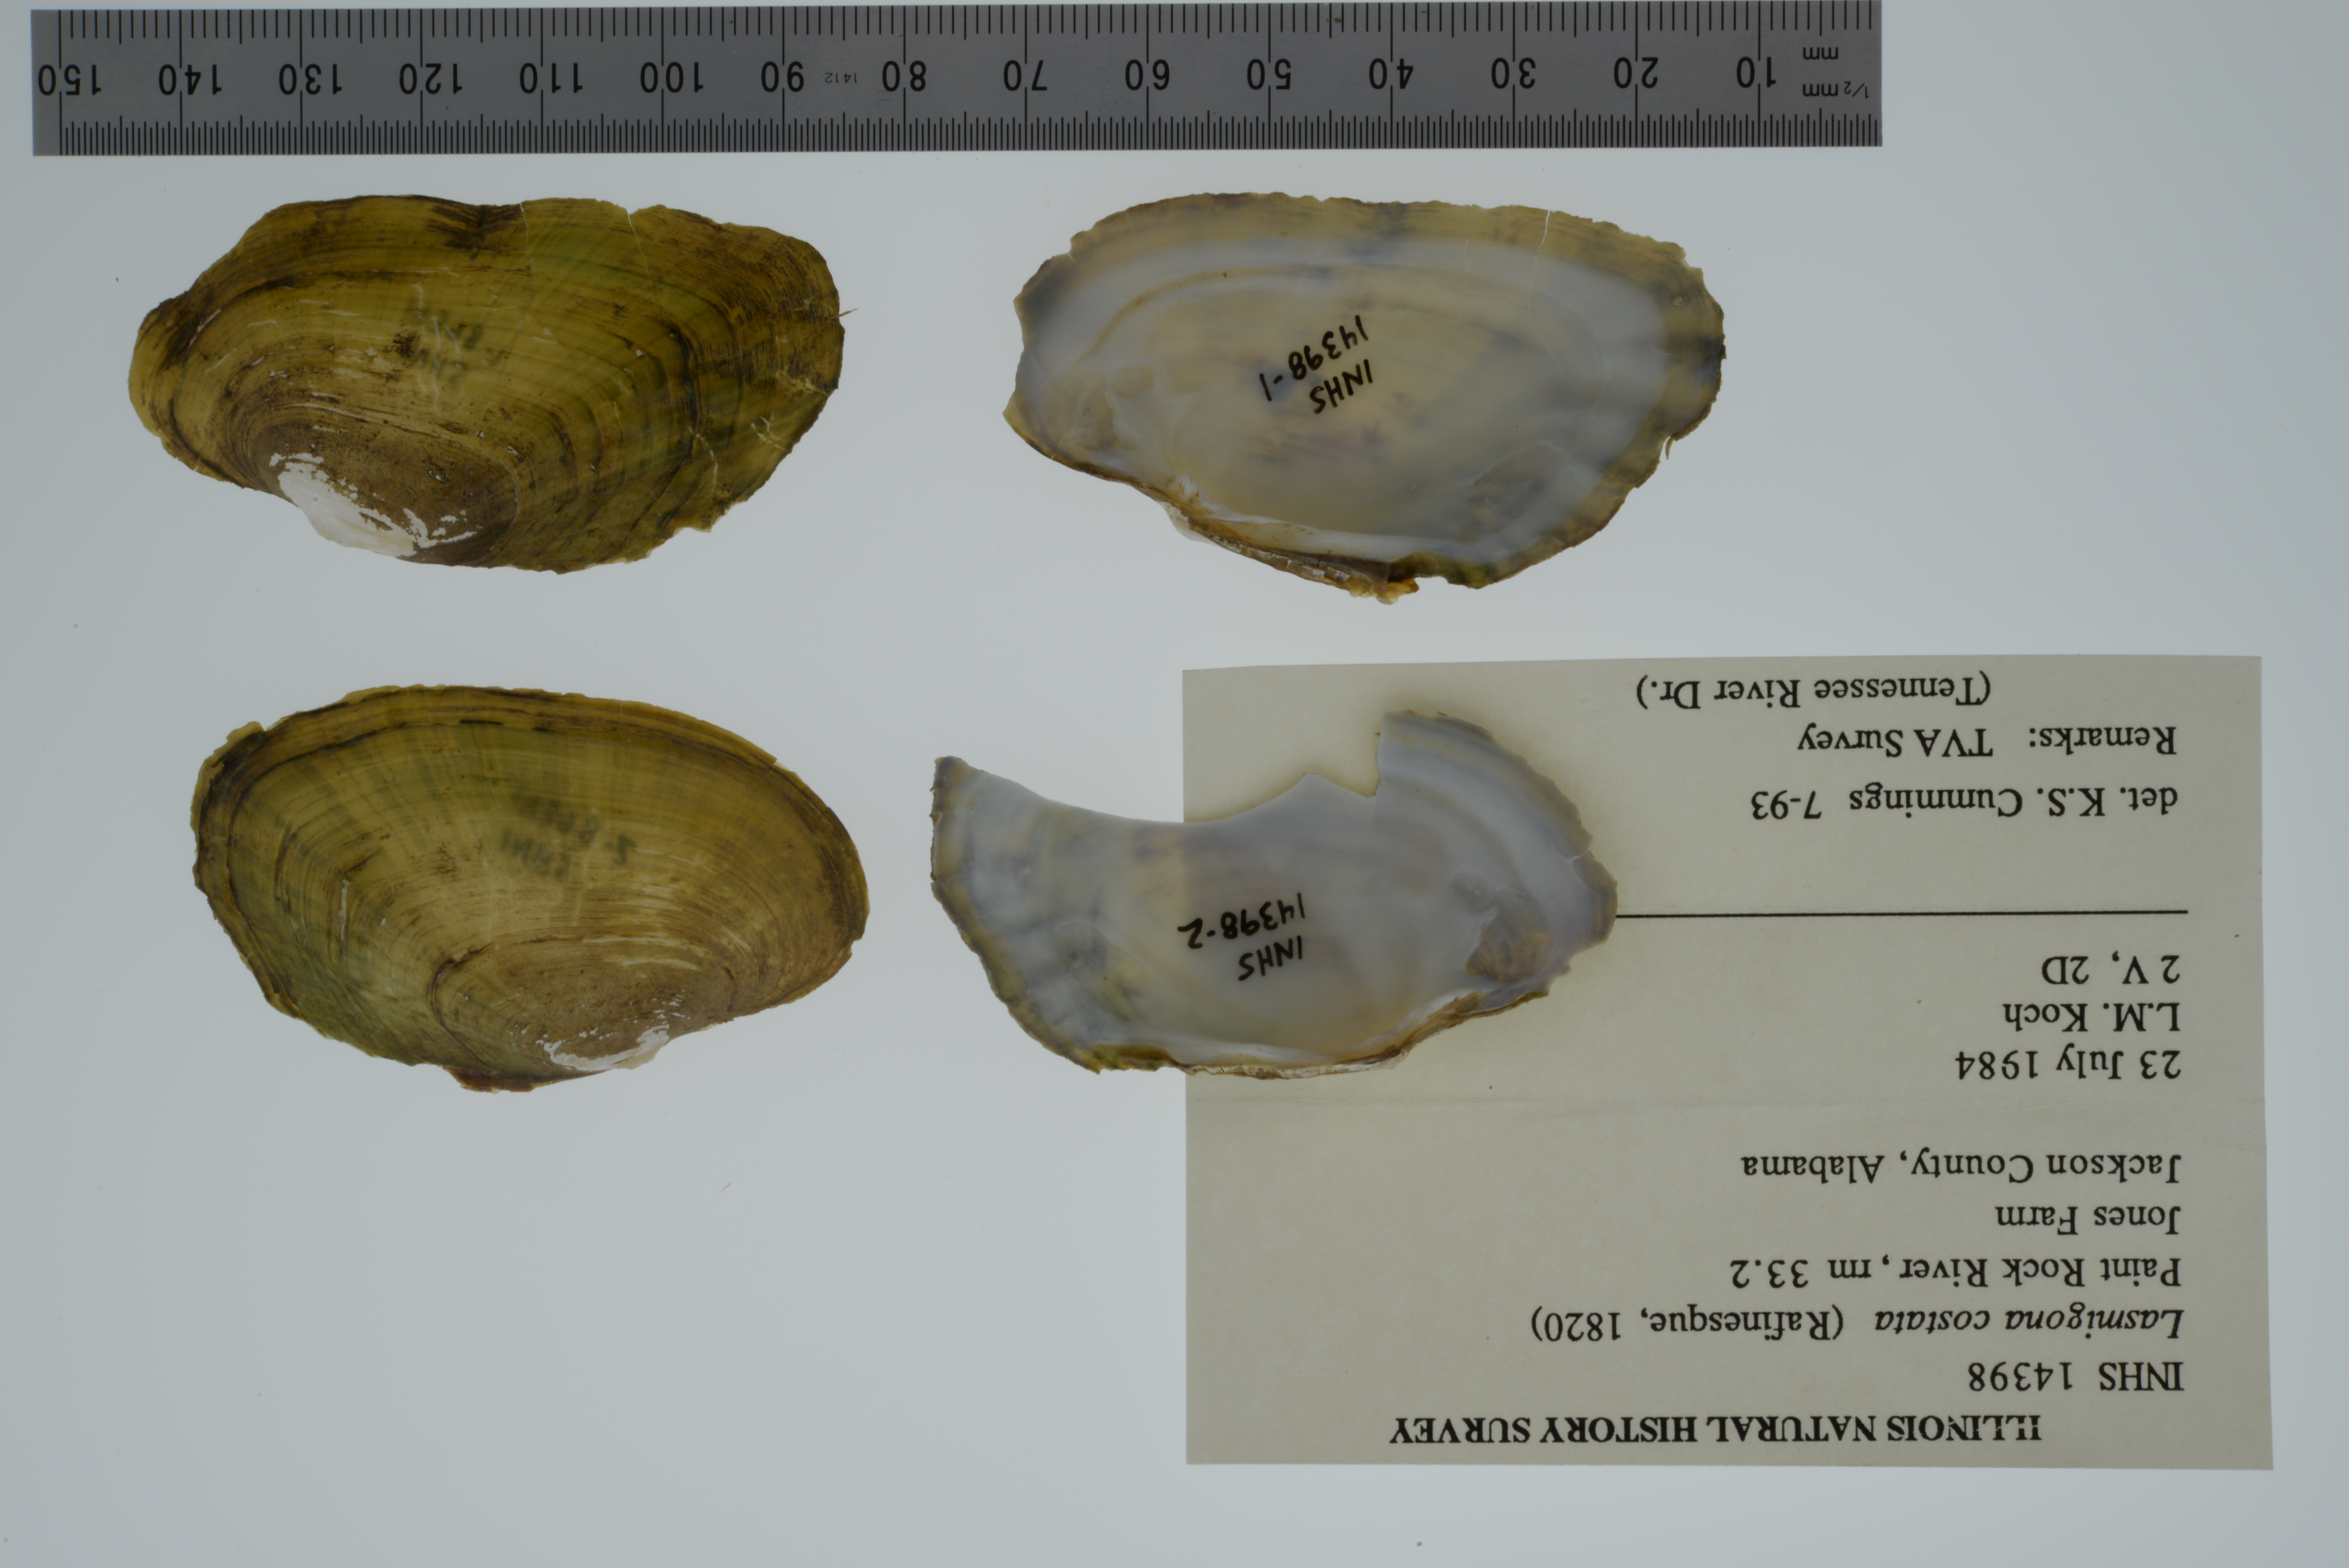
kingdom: Animalia
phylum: Mollusca
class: Bivalvia
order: Unionida
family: Unionidae
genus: Lasmigona
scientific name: Lasmigona costata
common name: Flutedshell
